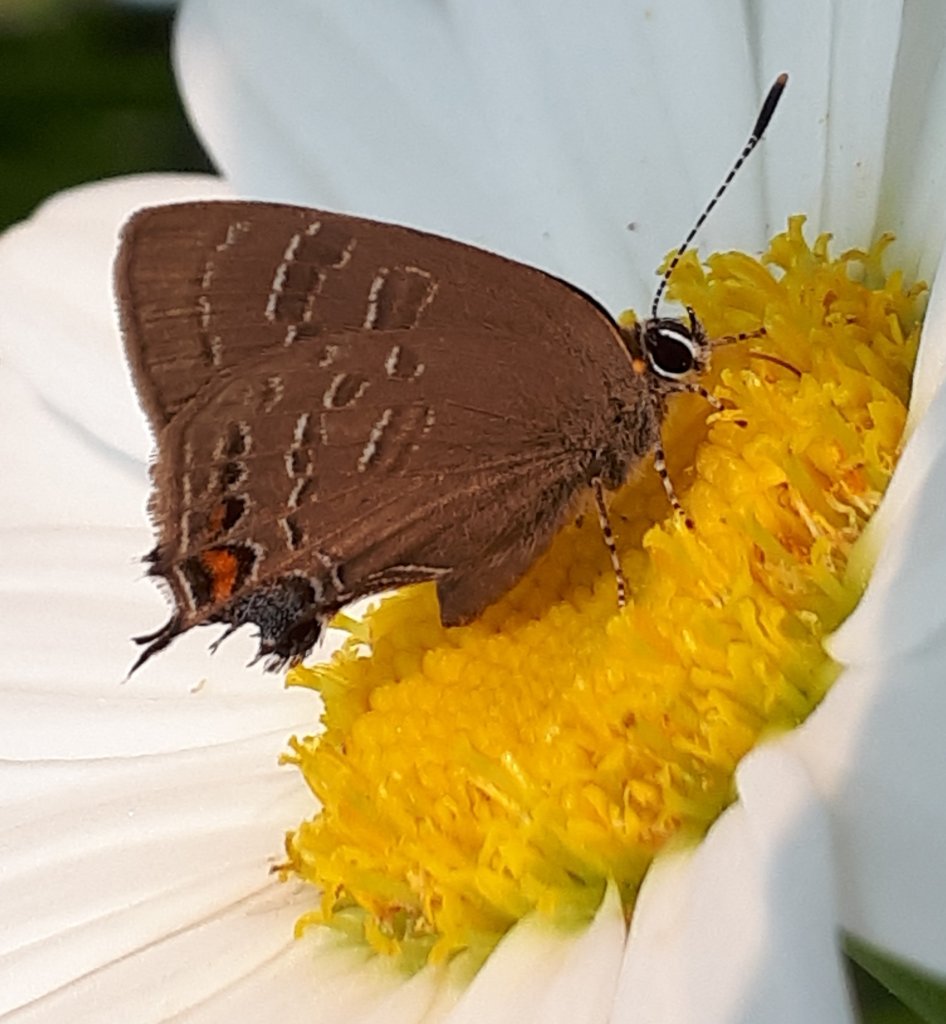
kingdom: Animalia
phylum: Arthropoda
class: Insecta
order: Lepidoptera
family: Lycaenidae
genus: Satyrium
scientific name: Satyrium calanus
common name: Banded Hairstreak
